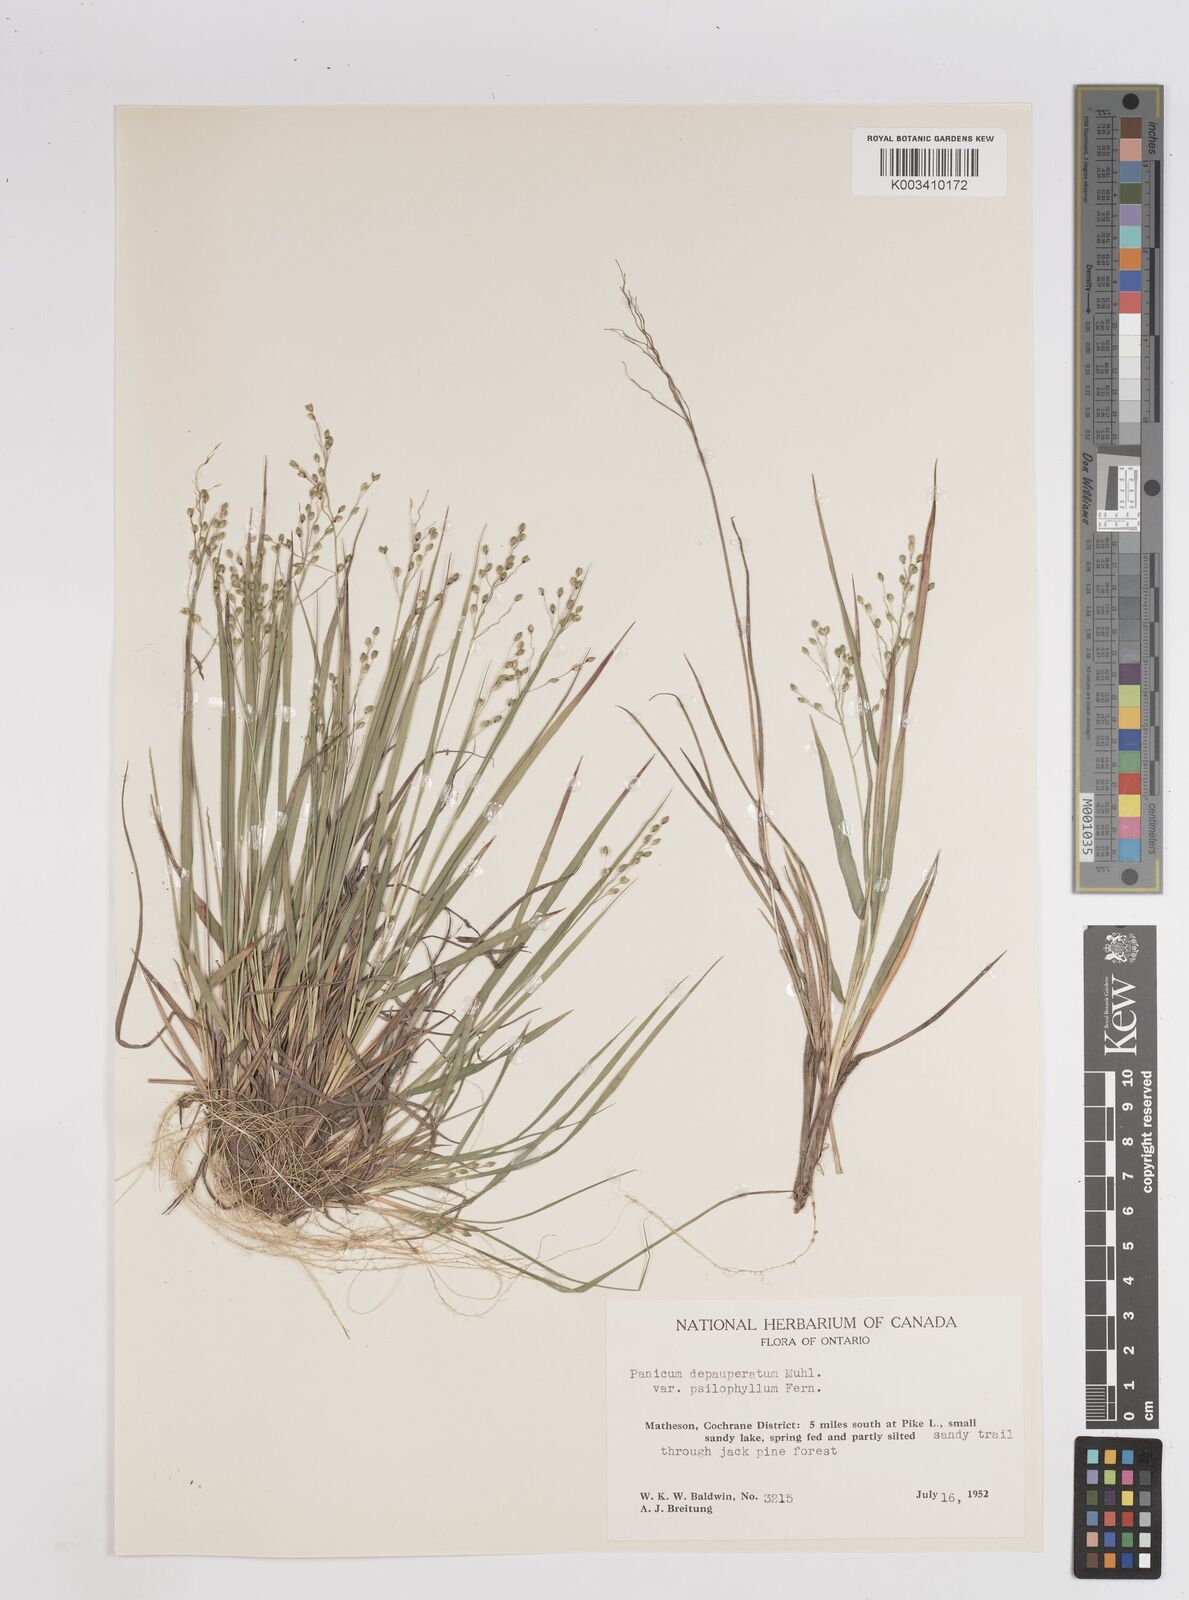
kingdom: Plantae
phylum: Tracheophyta
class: Liliopsida
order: Poales
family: Poaceae
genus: Dichanthelium
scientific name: Dichanthelium depauperatum
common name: Depauperate panicgrass
